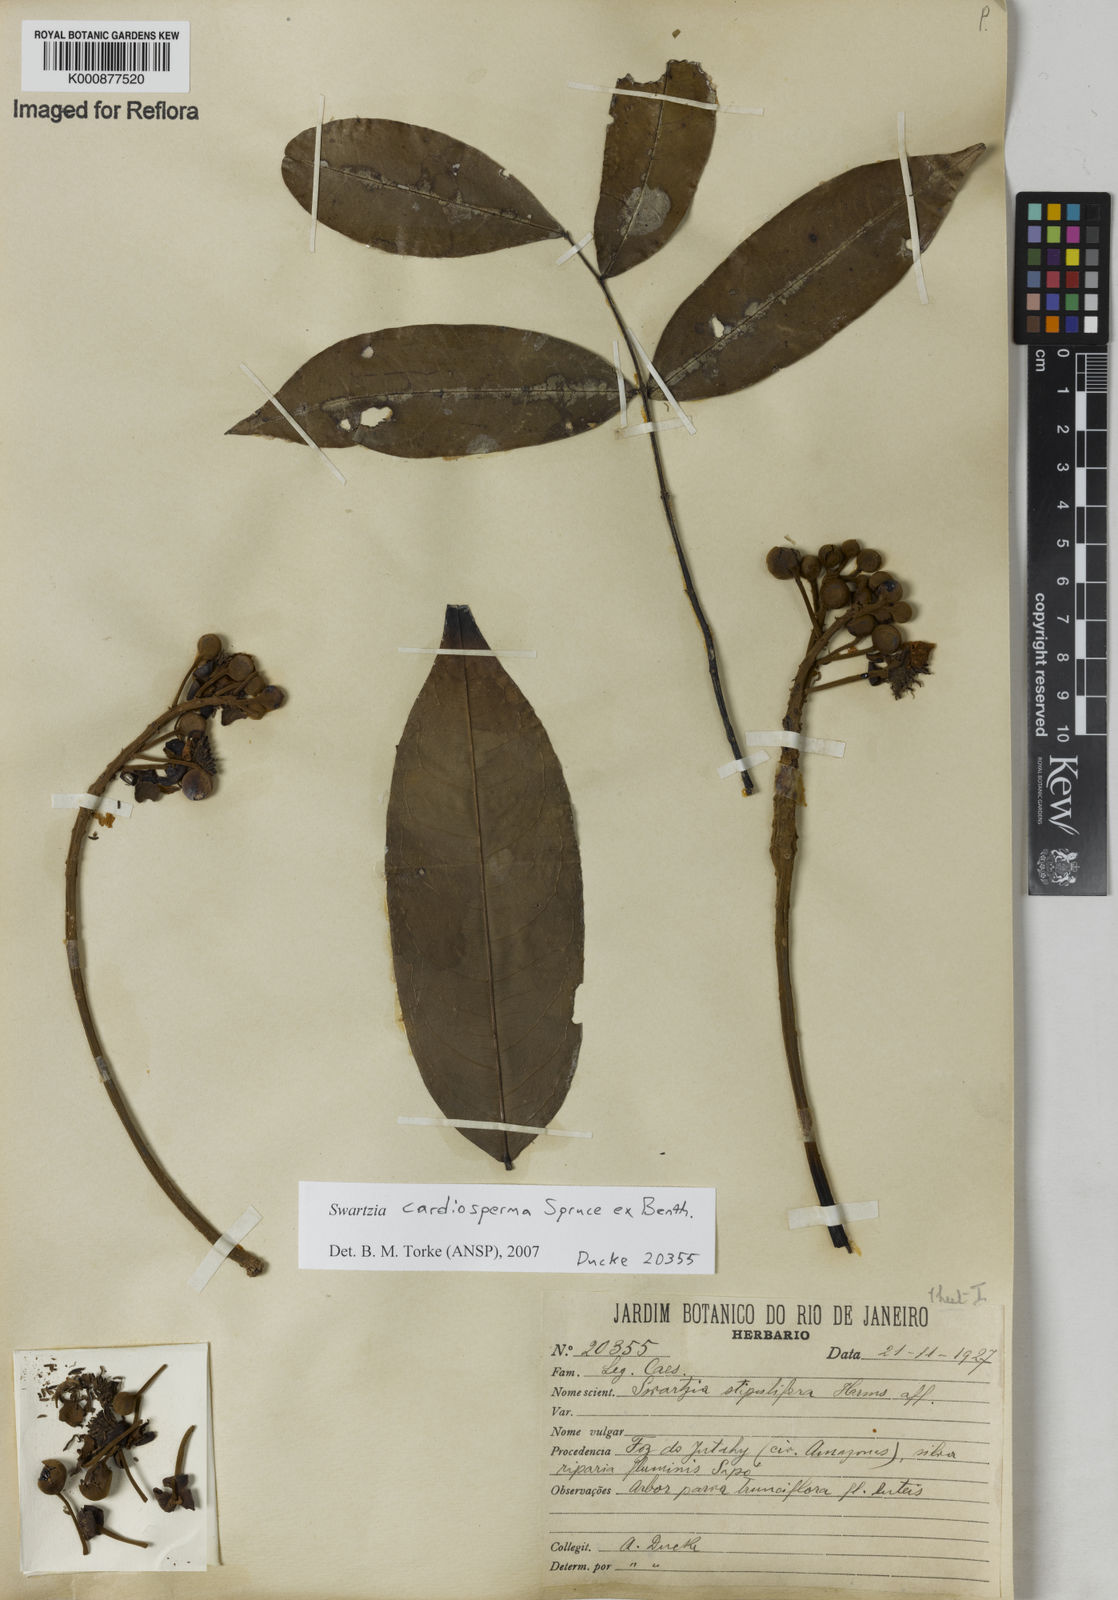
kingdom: Plantae
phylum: Tracheophyta
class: Magnoliopsida
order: Fabales
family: Fabaceae
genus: Swartzia
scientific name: Swartzia cardiosperma
